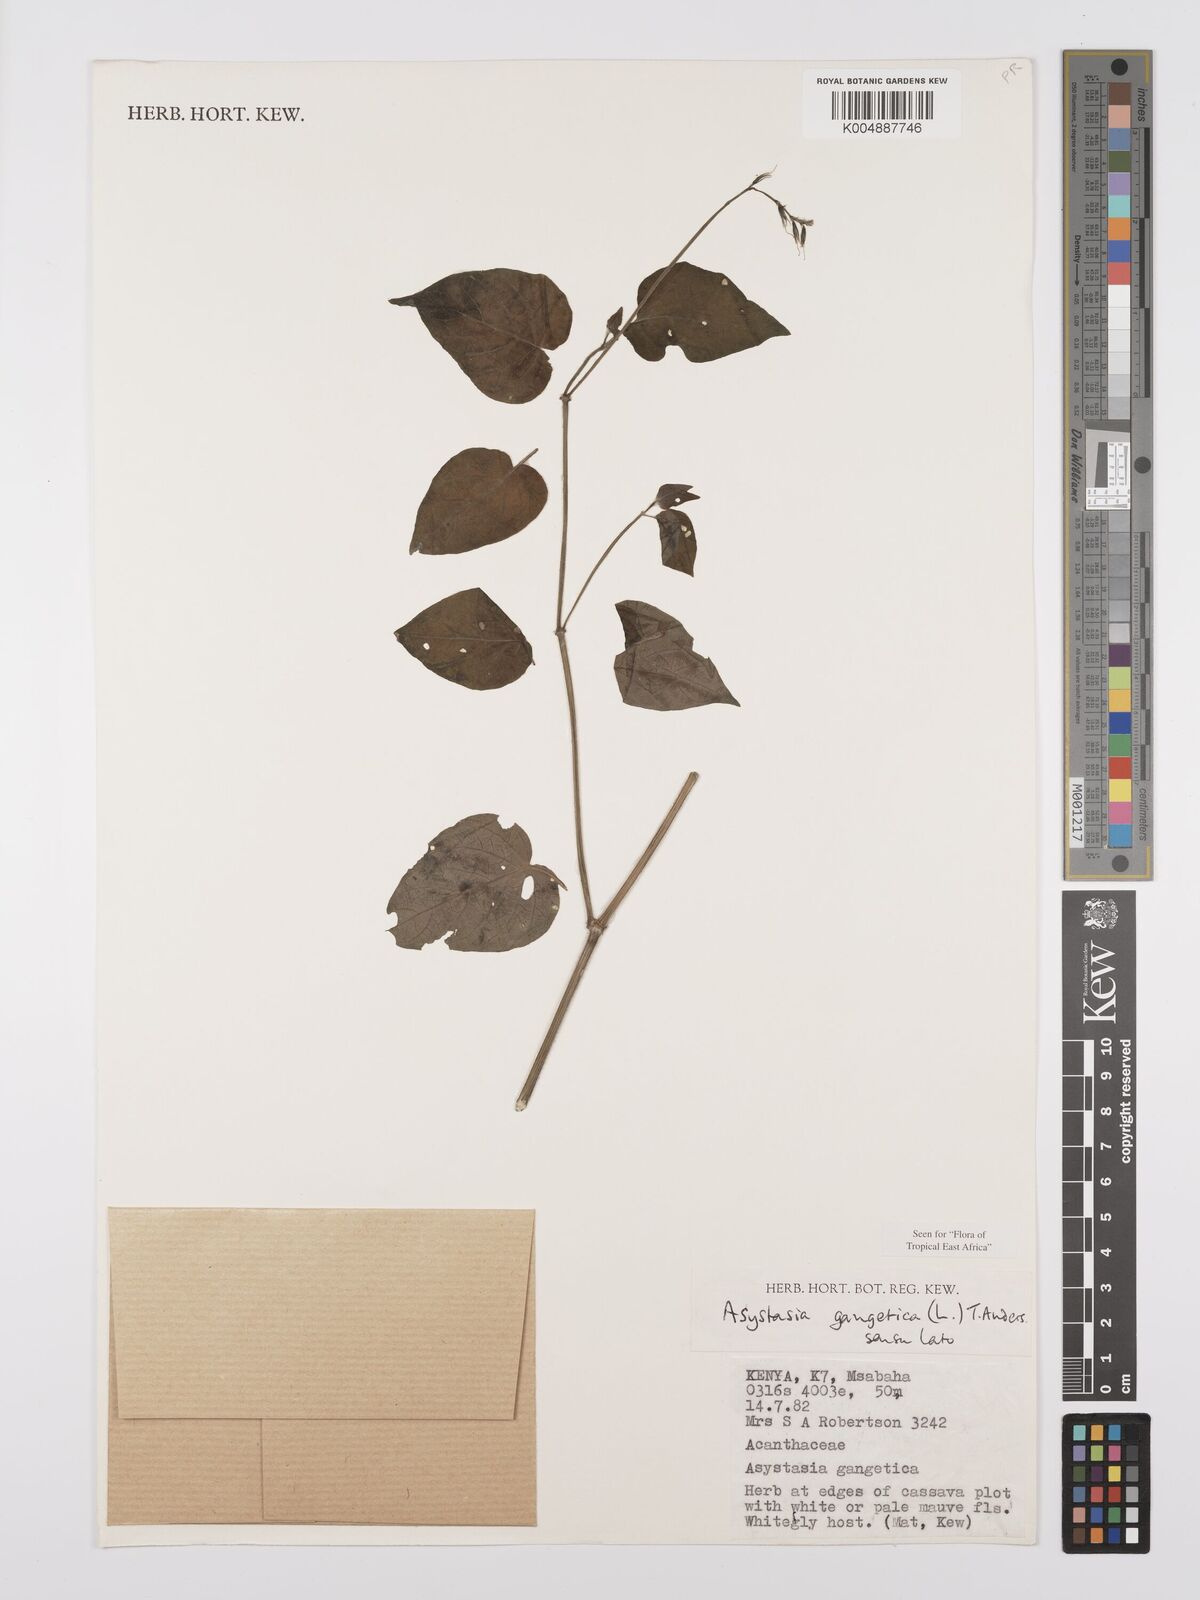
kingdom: Plantae
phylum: Tracheophyta
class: Magnoliopsida
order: Lamiales
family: Acanthaceae
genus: Asystasia
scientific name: Asystasia gangetica
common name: Chinese violet
